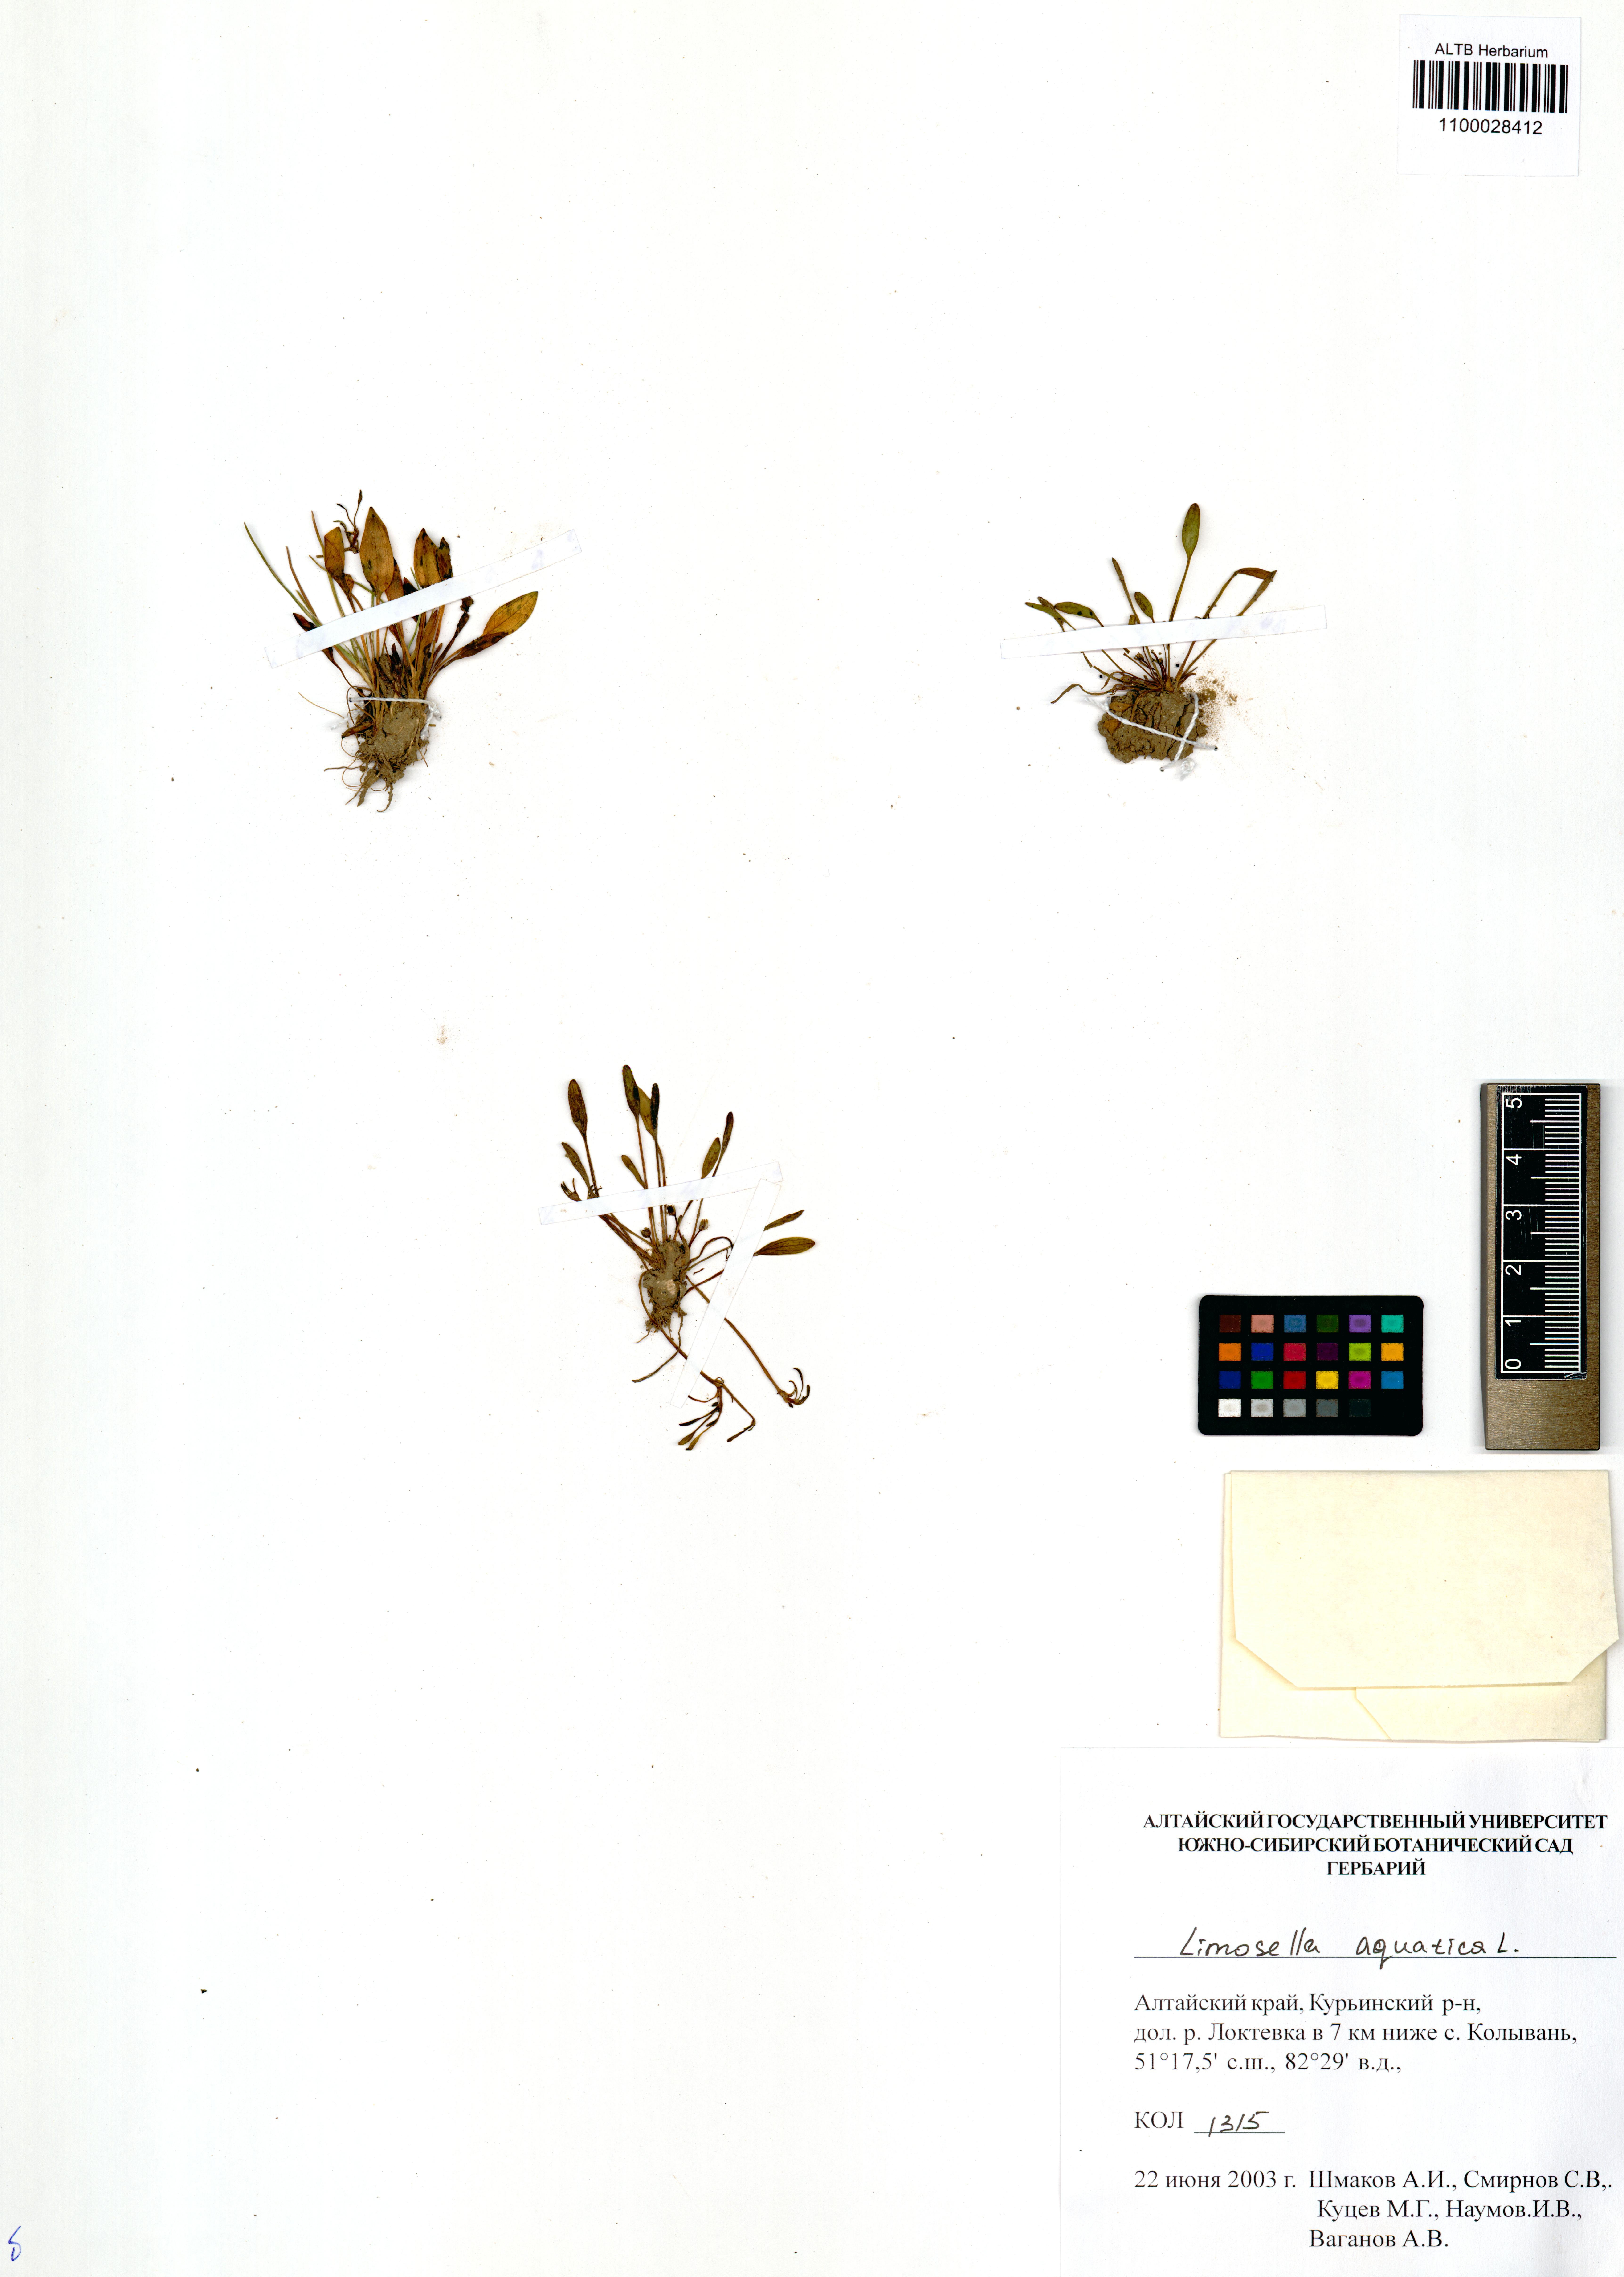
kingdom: Plantae
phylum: Tracheophyta
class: Magnoliopsida
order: Lamiales
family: Scrophulariaceae
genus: Limosella
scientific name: Limosella aquatica
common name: Mudwort
